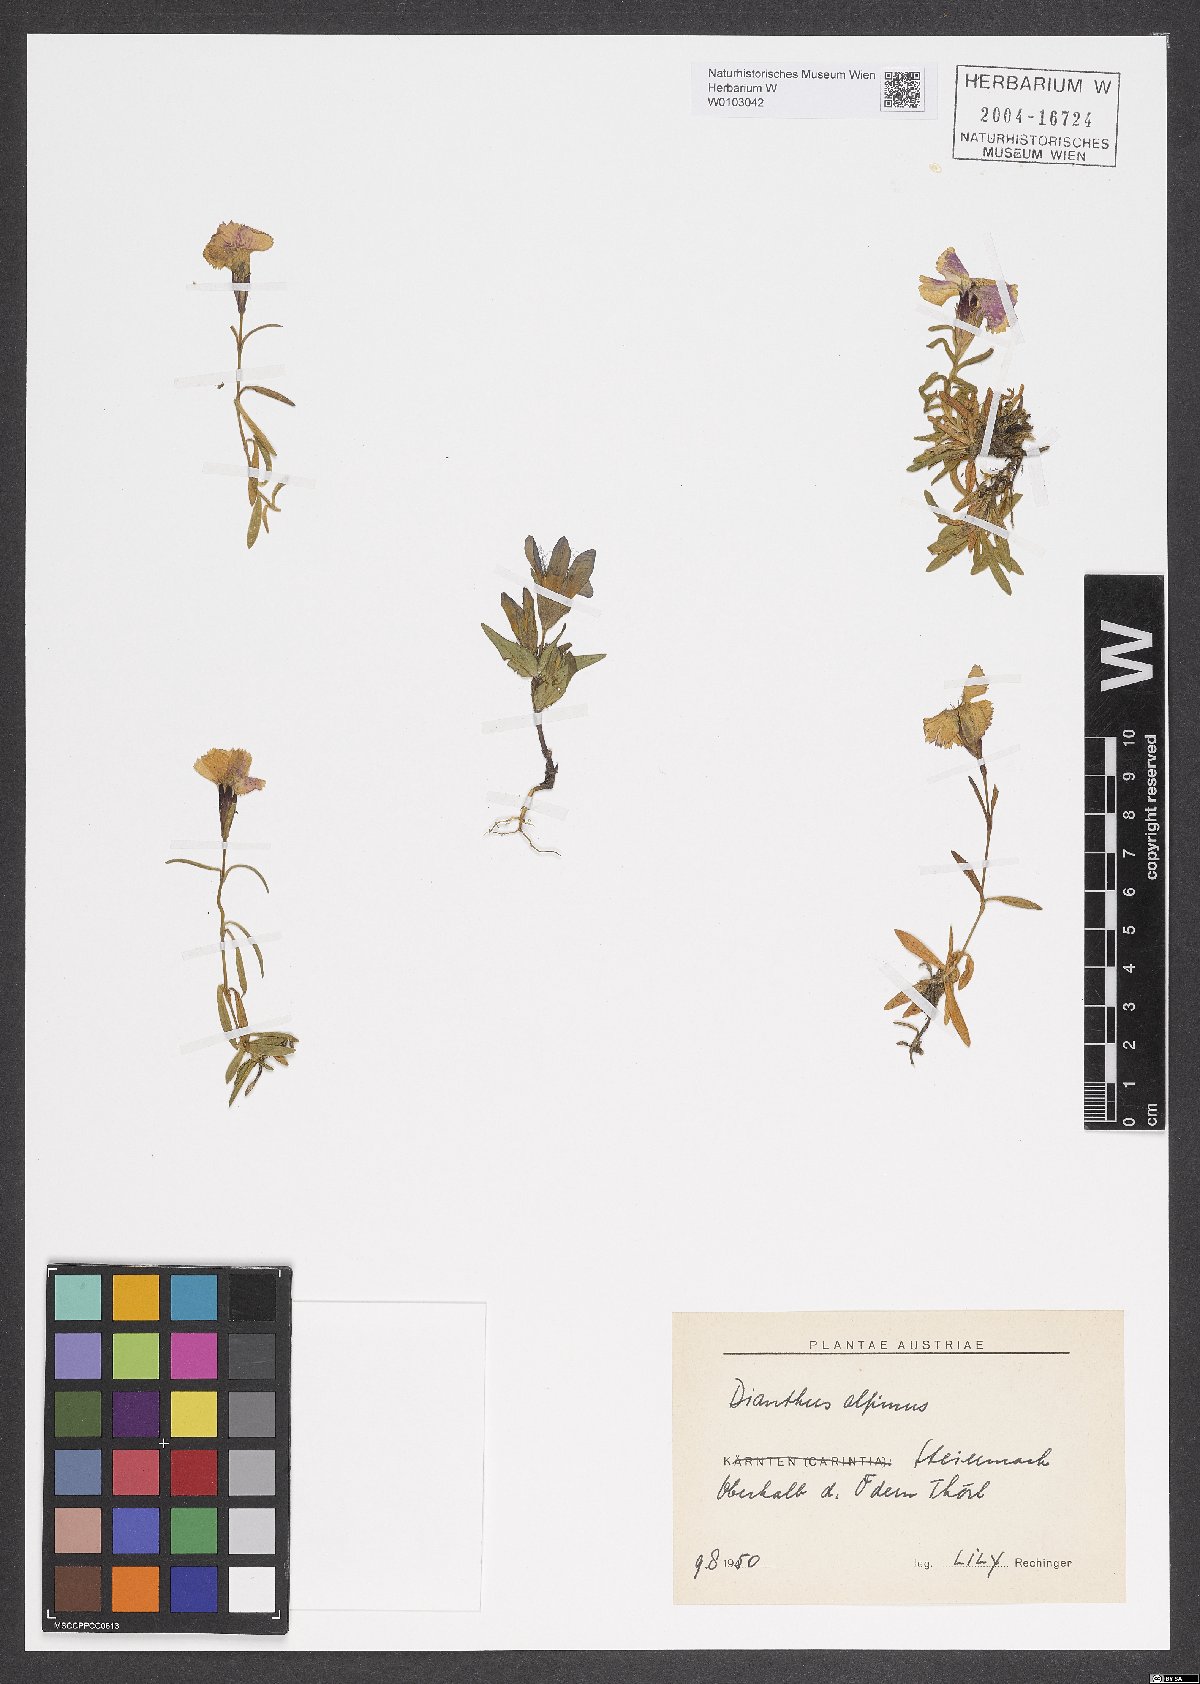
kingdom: Plantae
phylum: Tracheophyta
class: Magnoliopsida
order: Caryophyllales
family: Caryophyllaceae
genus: Dianthus
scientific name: Dianthus alpinus
